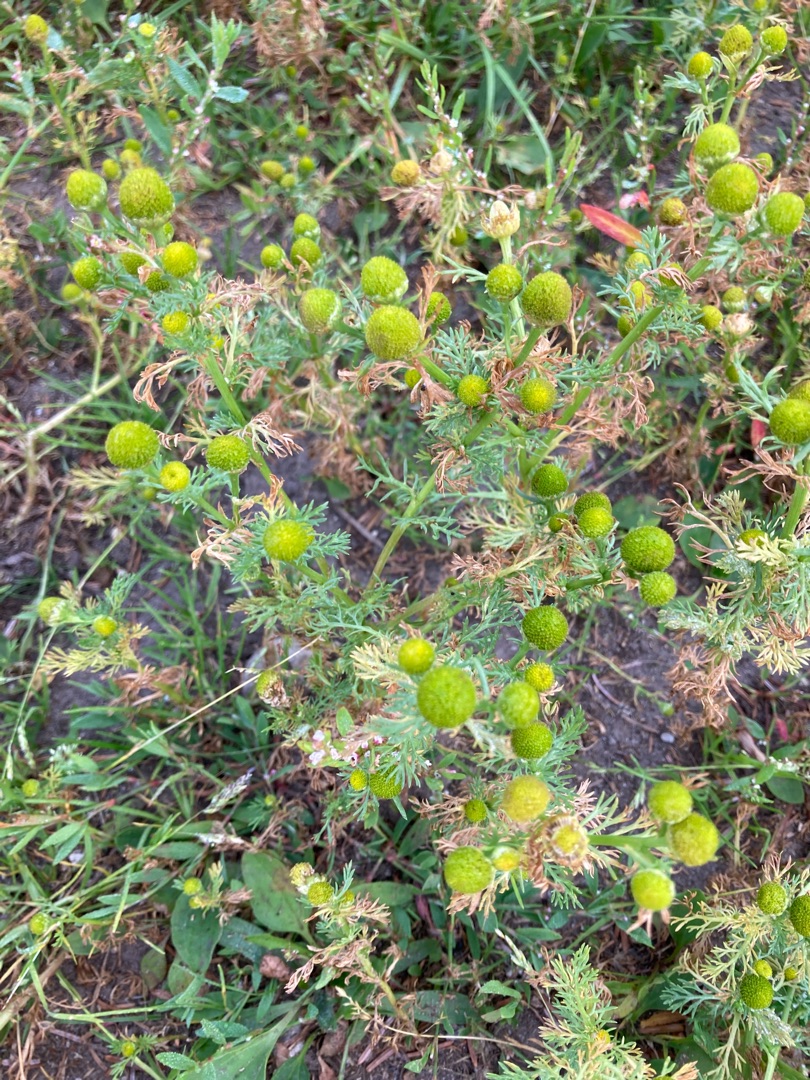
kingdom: Plantae
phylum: Tracheophyta
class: Magnoliopsida
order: Asterales
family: Asteraceae
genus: Matricaria
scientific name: Matricaria discoidea
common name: Skive-kamille
